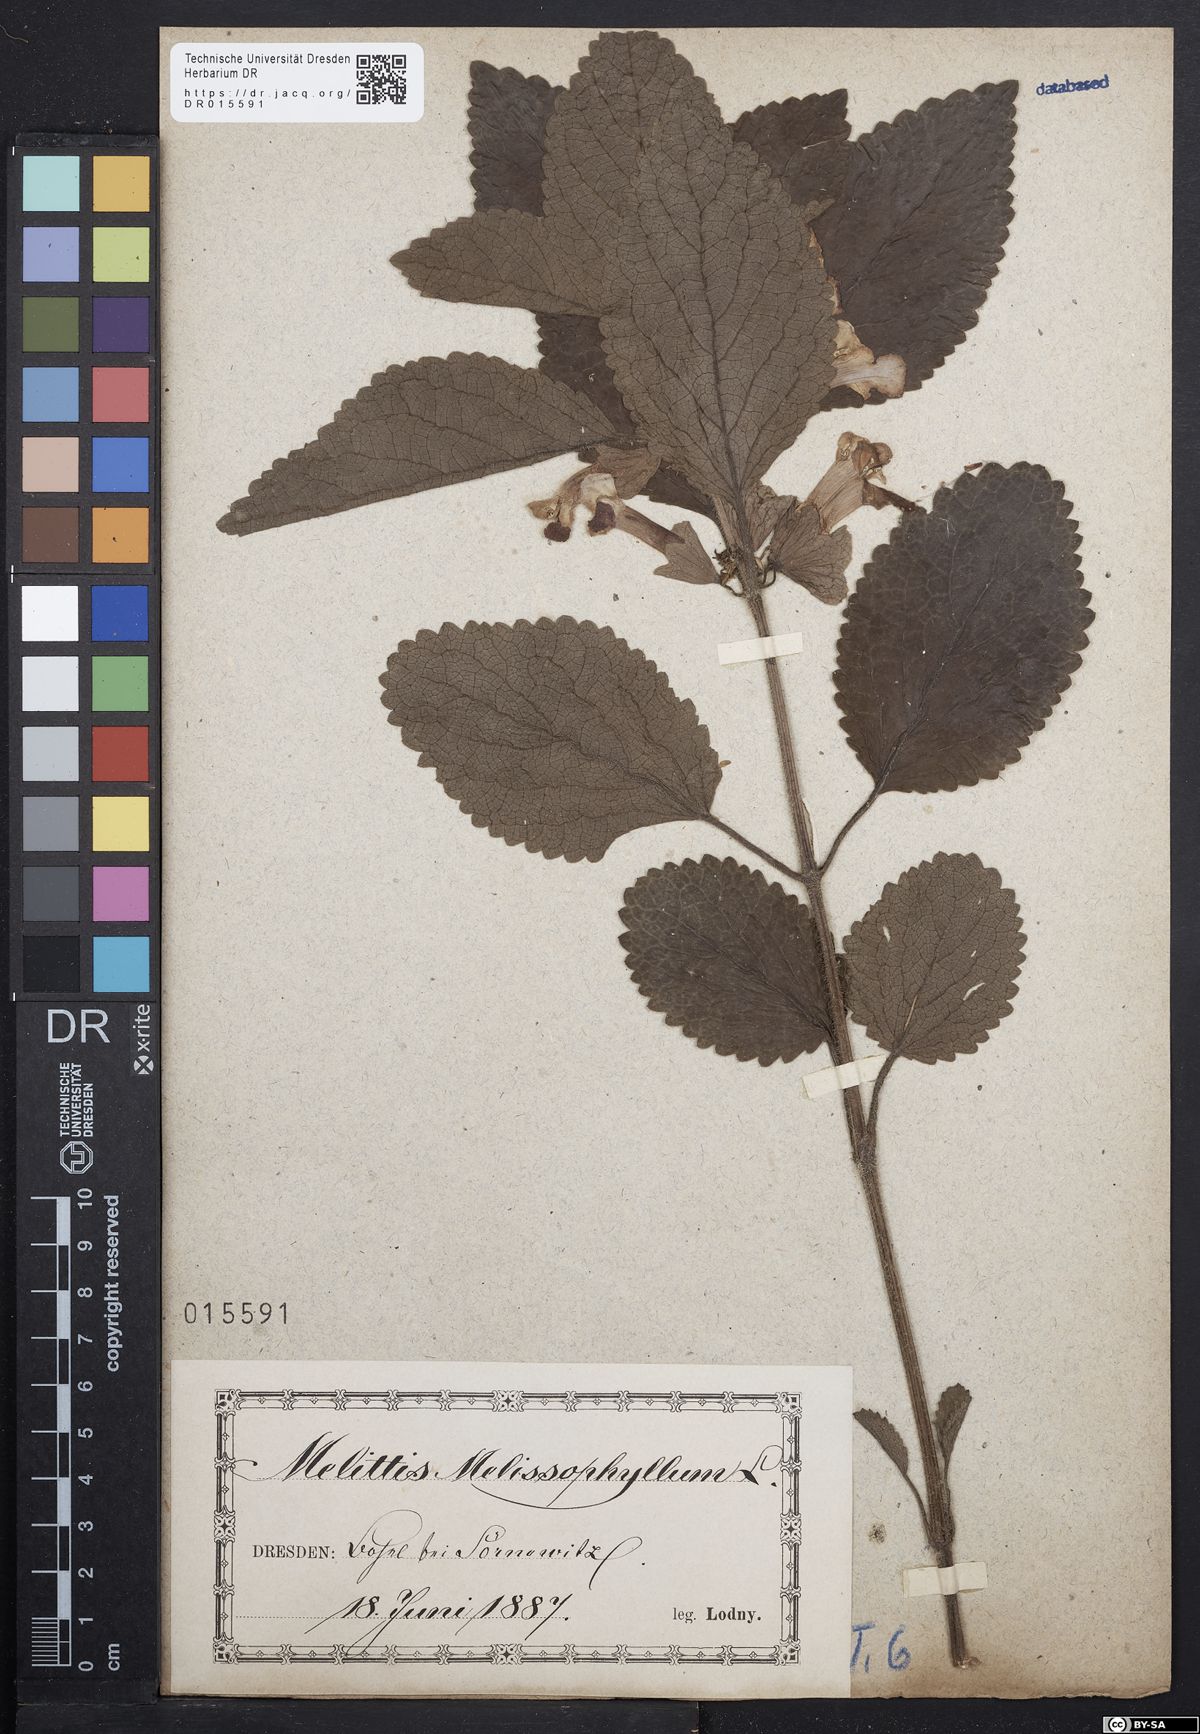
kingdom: Plantae
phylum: Tracheophyta
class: Magnoliopsida
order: Lamiales
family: Lamiaceae
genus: Melittis
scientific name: Melittis melissophyllum
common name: Bastard balm
